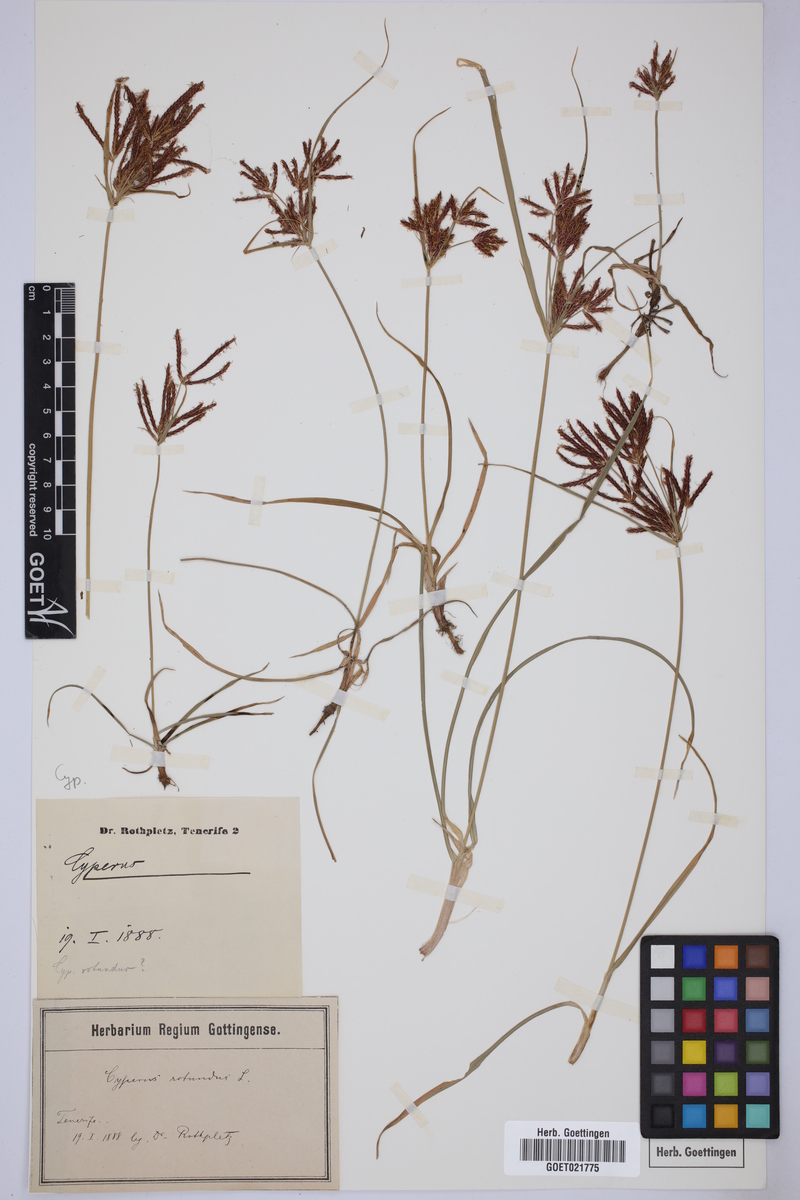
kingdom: Plantae
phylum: Tracheophyta
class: Liliopsida
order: Poales
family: Cyperaceae
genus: Cyperus
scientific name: Cyperus rotundus
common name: Nutgrass
